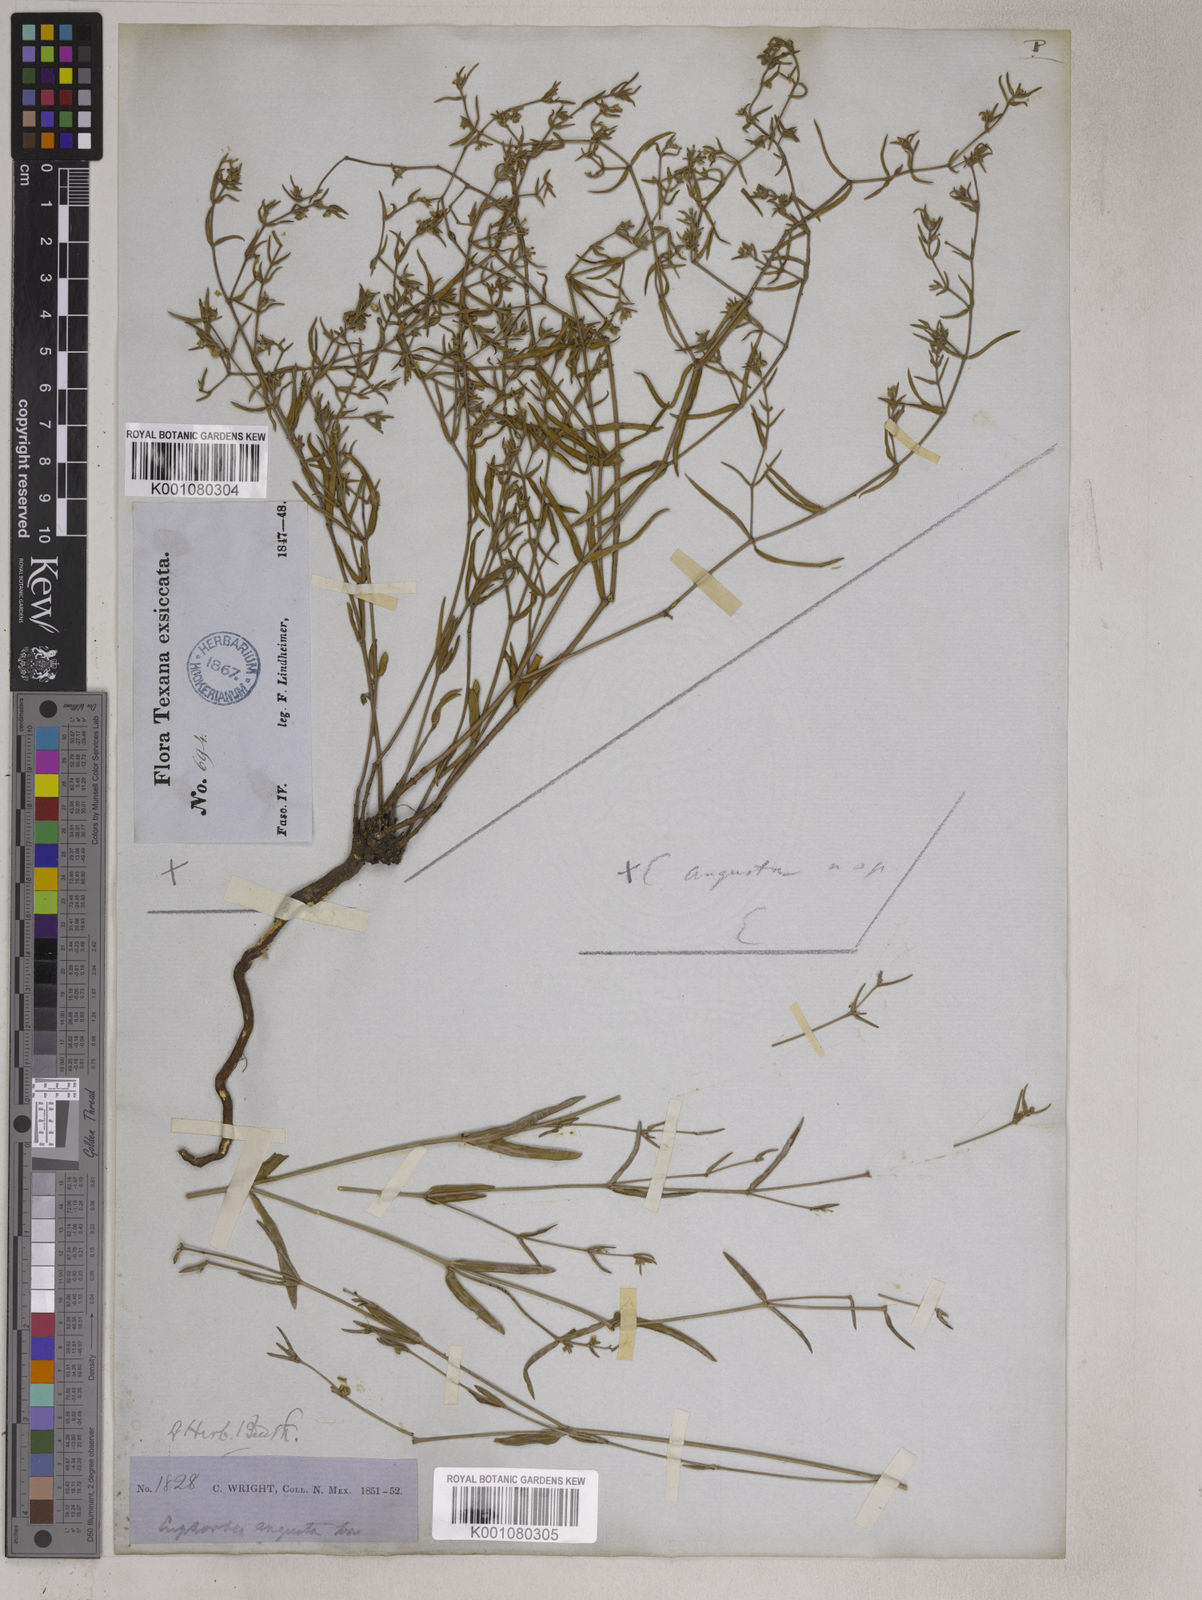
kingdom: Plantae
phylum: Tracheophyta
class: Magnoliopsida
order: Malpighiales
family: Euphorbiaceae
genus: Euphorbia
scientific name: Euphorbia angusta
